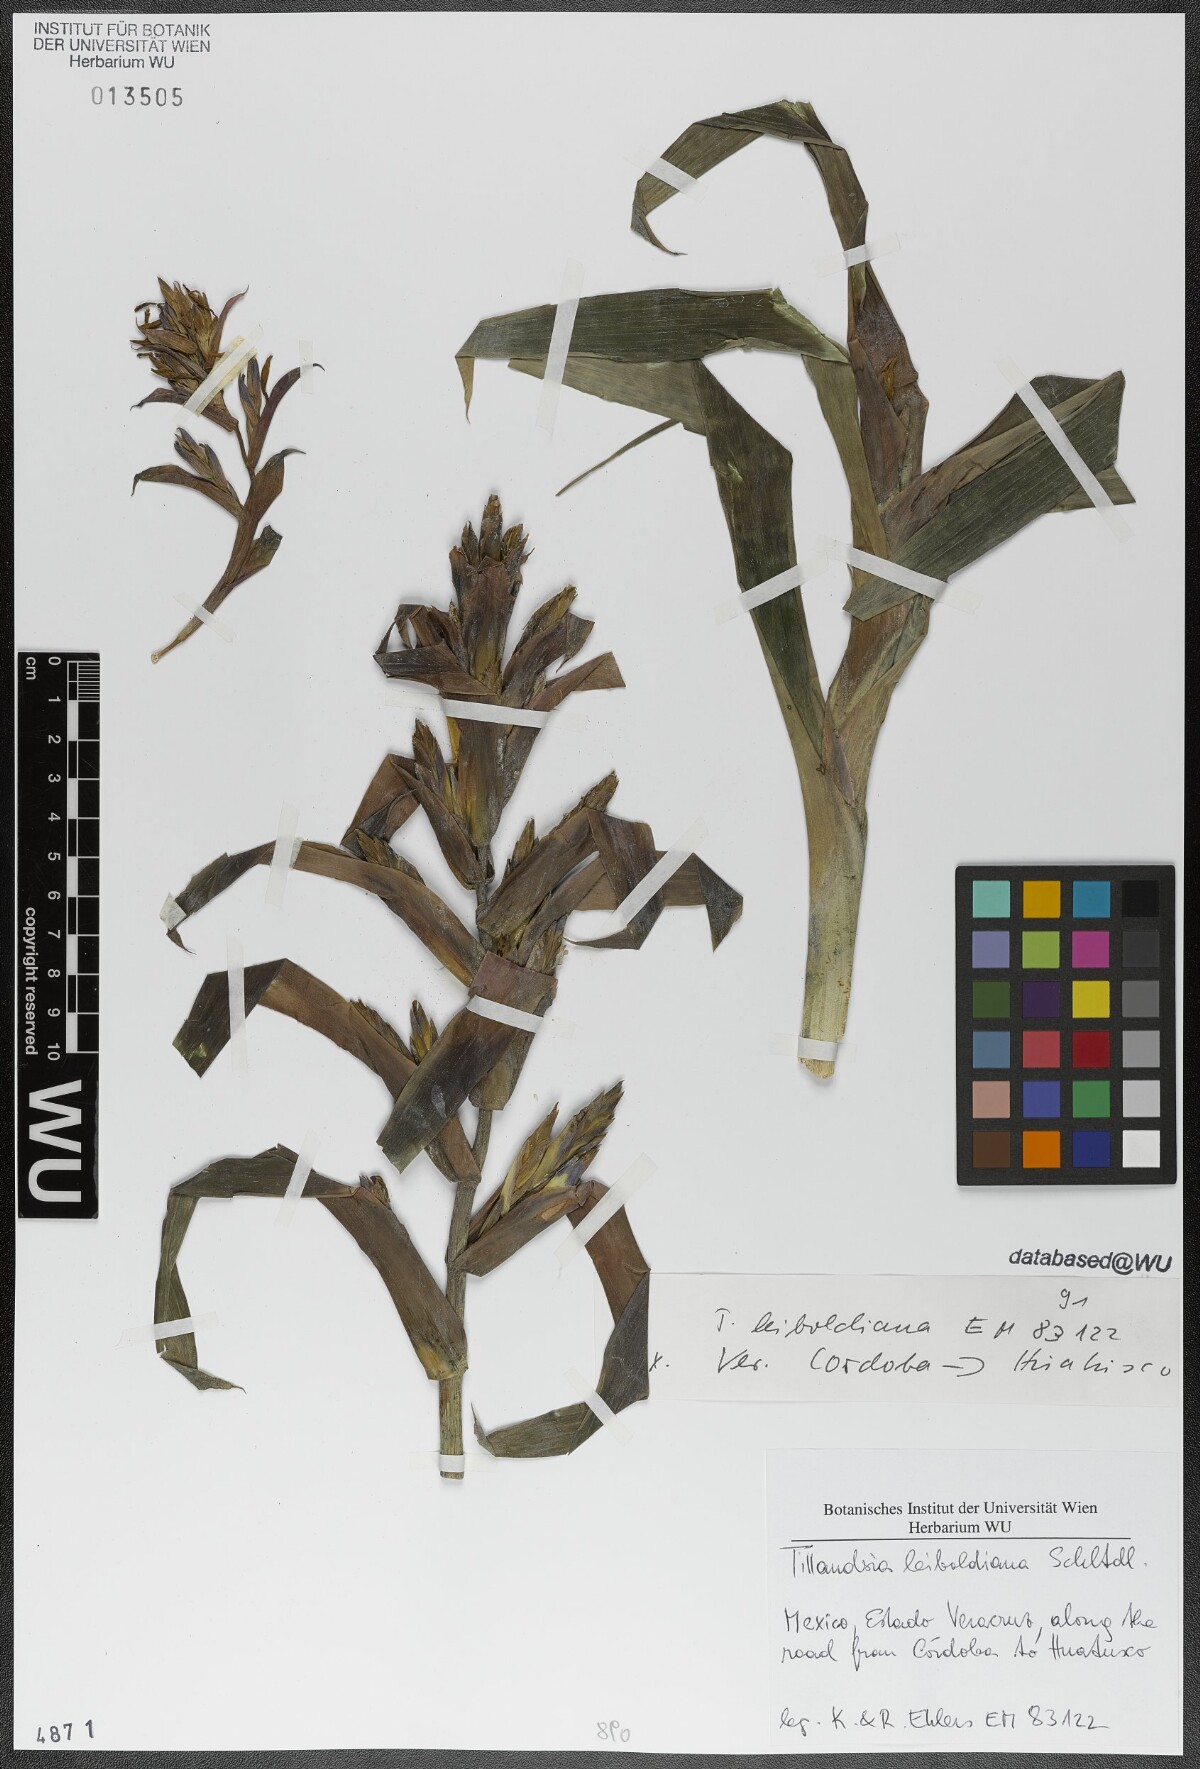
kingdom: Plantae
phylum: Tracheophyta
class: Liliopsida
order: Poales
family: Bromeliaceae
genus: Tillandsia
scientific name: Tillandsia leiboldiana
